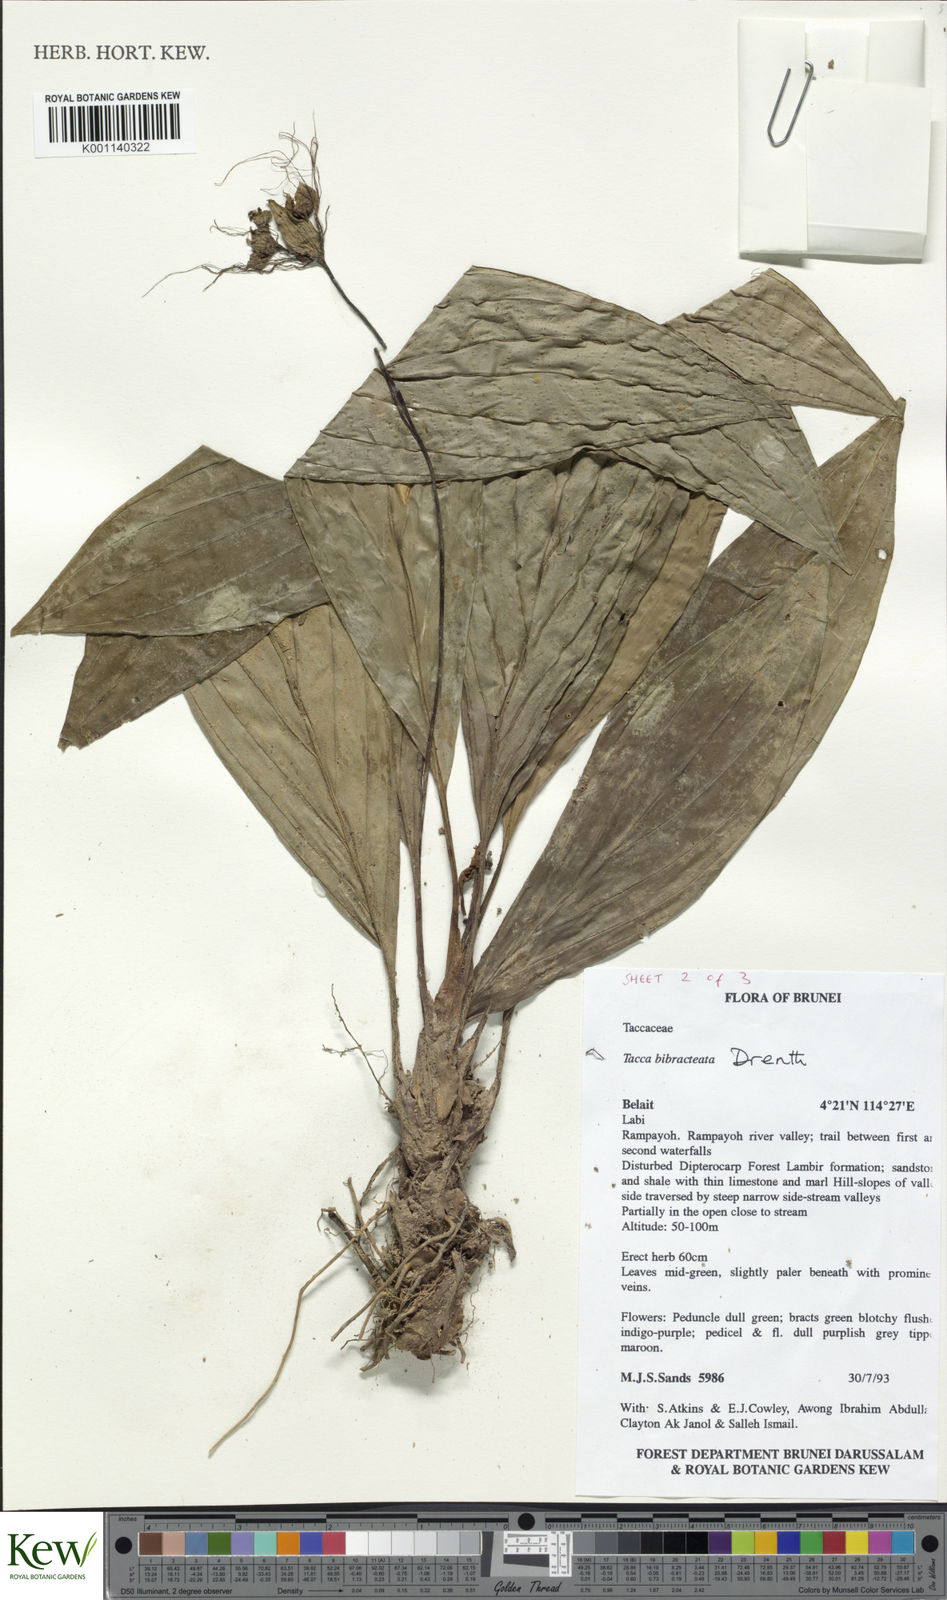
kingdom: Plantae
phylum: Tracheophyta
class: Liliopsida
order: Dioscoreales
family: Dioscoreaceae
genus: Tacca
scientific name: Tacca bibracteata
